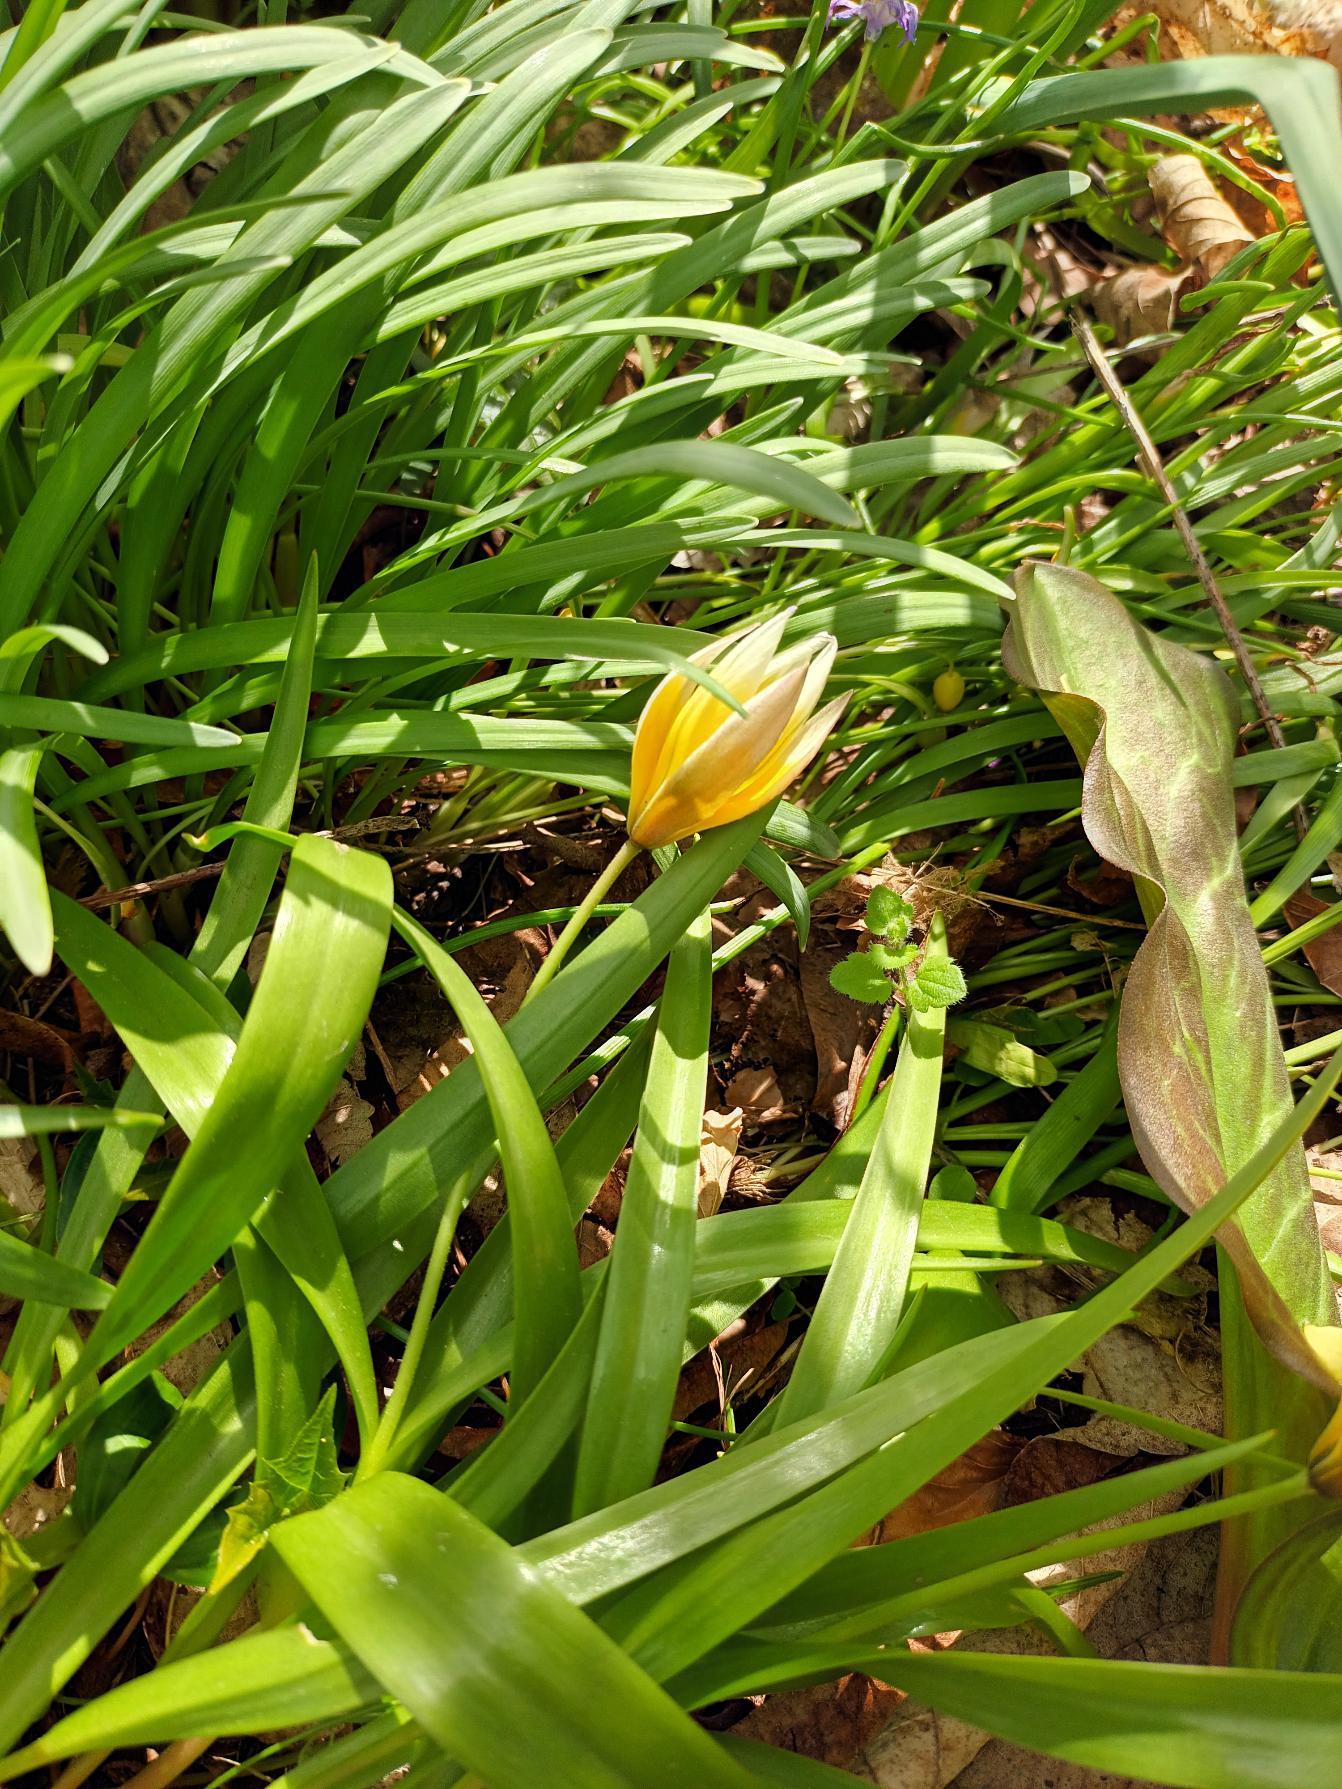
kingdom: Plantae
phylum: Tracheophyta
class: Liliopsida
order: Liliales
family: Liliaceae
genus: Tulipa
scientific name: Tulipa urumiensis
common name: Skærm-tulipan
